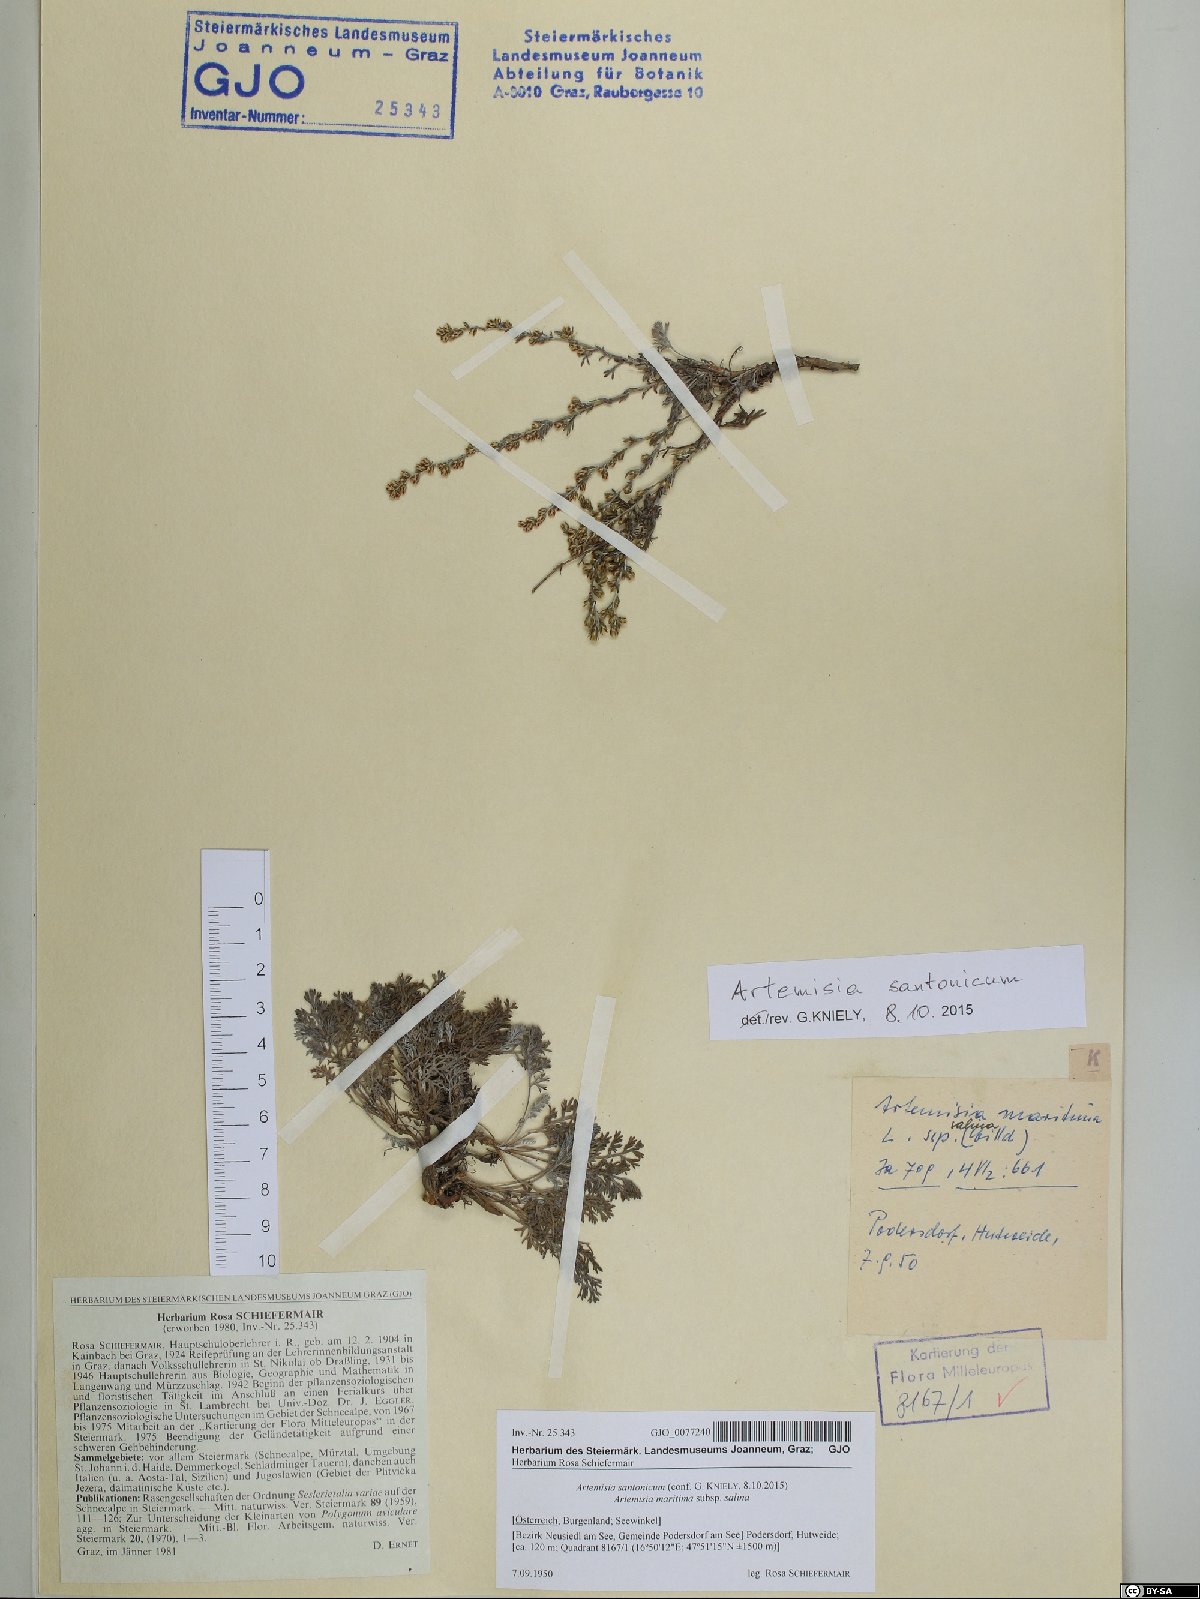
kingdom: Plantae
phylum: Tracheophyta
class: Magnoliopsida
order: Asterales
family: Asteraceae
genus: Artemisia
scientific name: Artemisia santonicum
